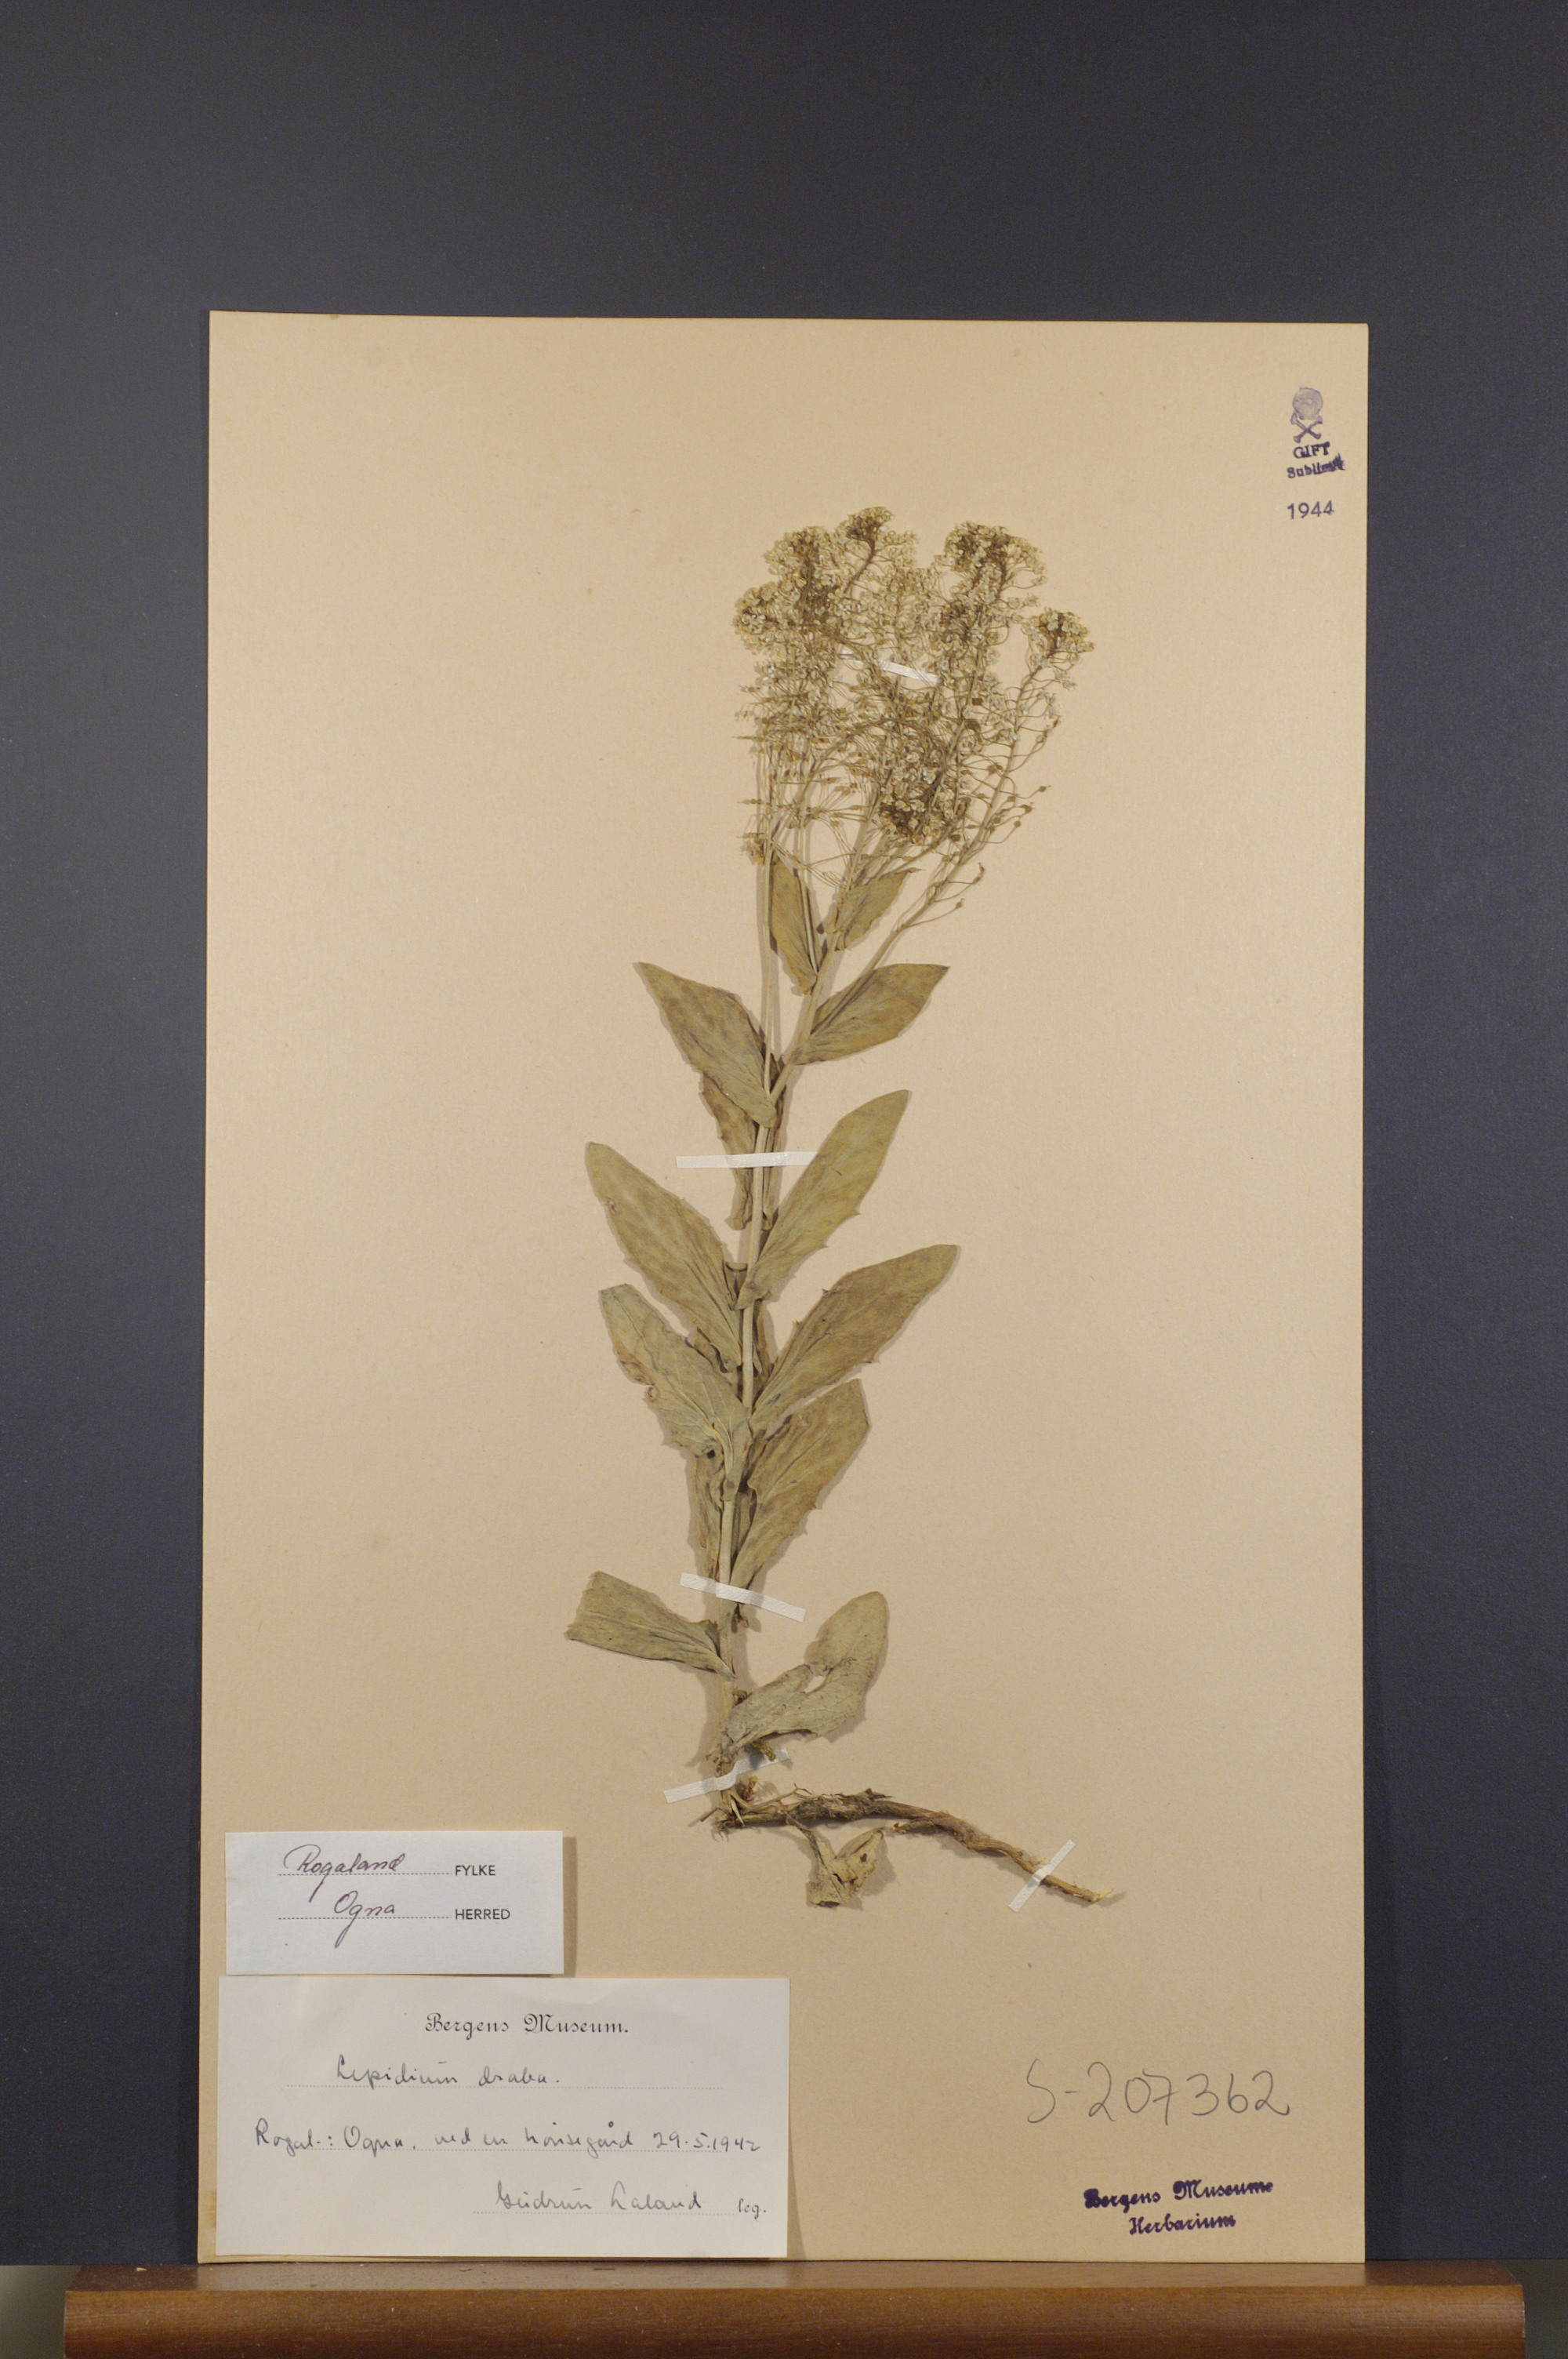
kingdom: Plantae
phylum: Tracheophyta
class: Magnoliopsida
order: Brassicales
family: Brassicaceae
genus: Lepidium
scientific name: Lepidium draba
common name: Hoary cress
